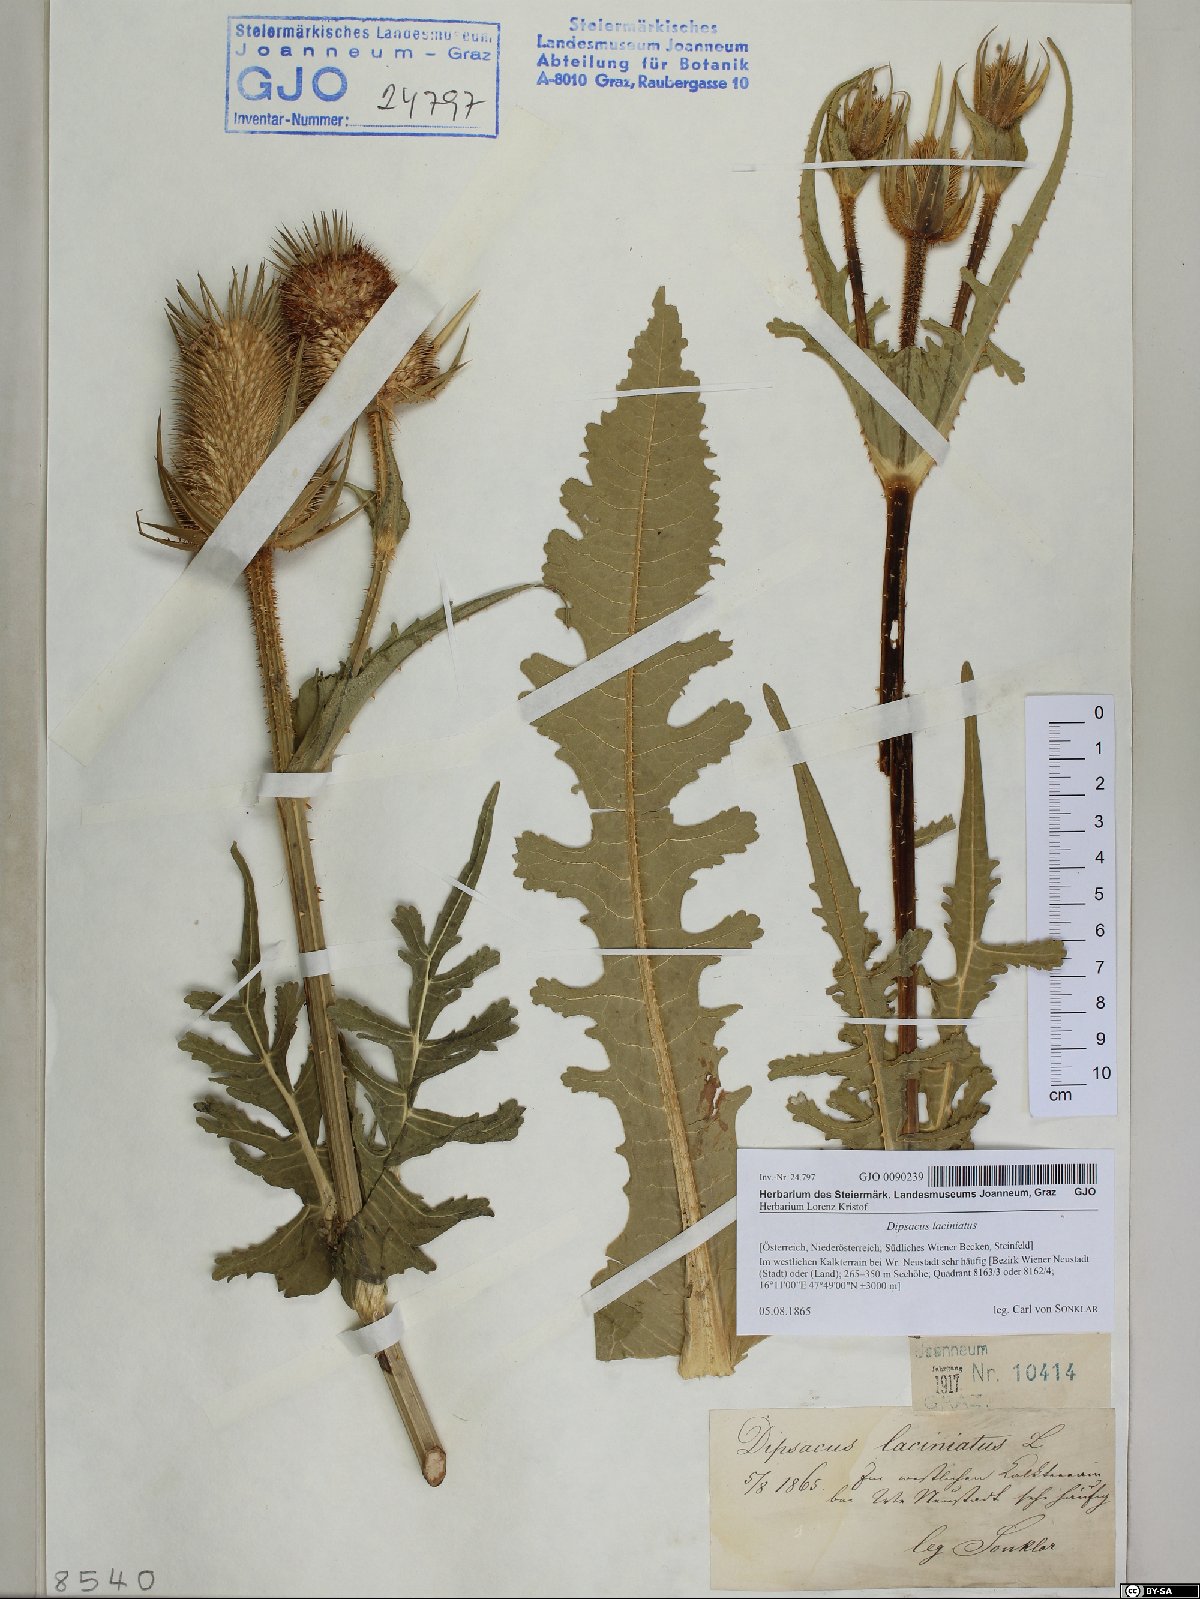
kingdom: Plantae
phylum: Tracheophyta
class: Magnoliopsida
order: Dipsacales
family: Caprifoliaceae
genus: Dipsacus
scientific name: Dipsacus laciniatus
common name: Cut-leaved teasel
